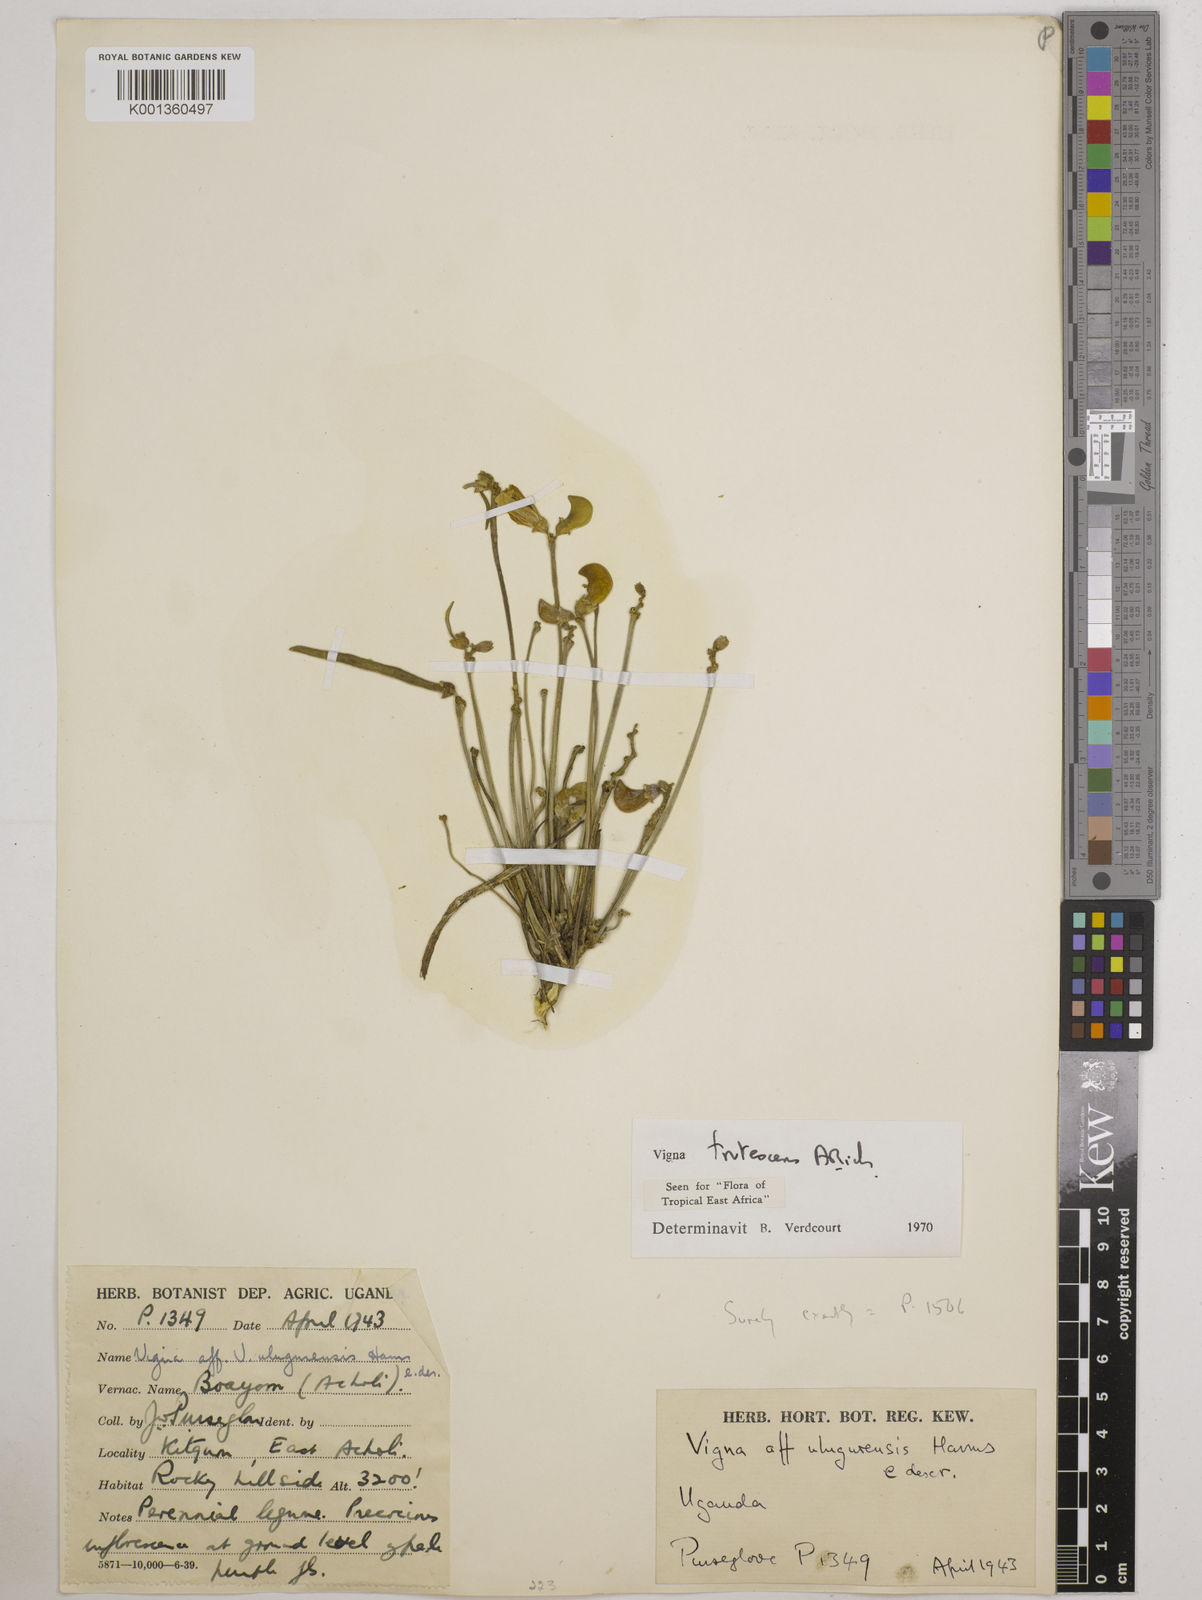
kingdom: Plantae
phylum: Tracheophyta
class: Magnoliopsida
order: Fabales
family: Fabaceae
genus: Vigna
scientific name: Vigna frutescens
